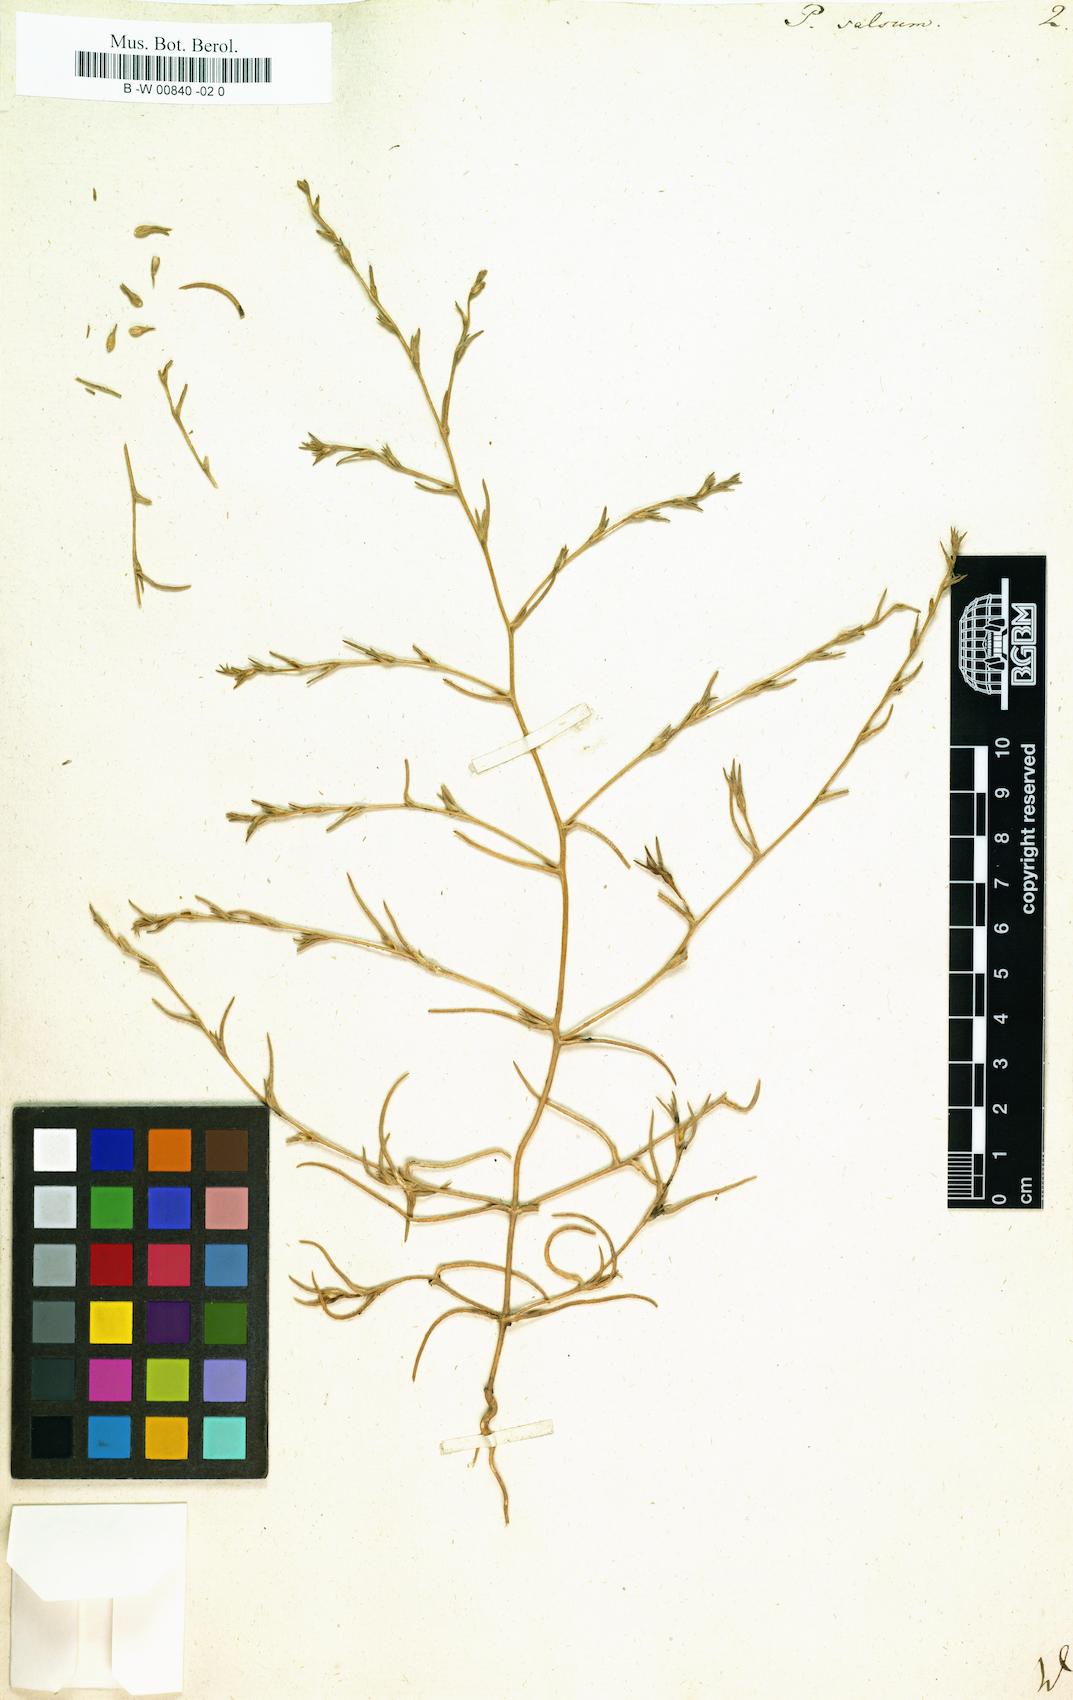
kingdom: Plantae
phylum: Tracheophyta
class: Magnoliopsida
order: Caryophyllales
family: Amaranthaceae
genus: Petrosimonia
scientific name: Petrosimonia triandra
